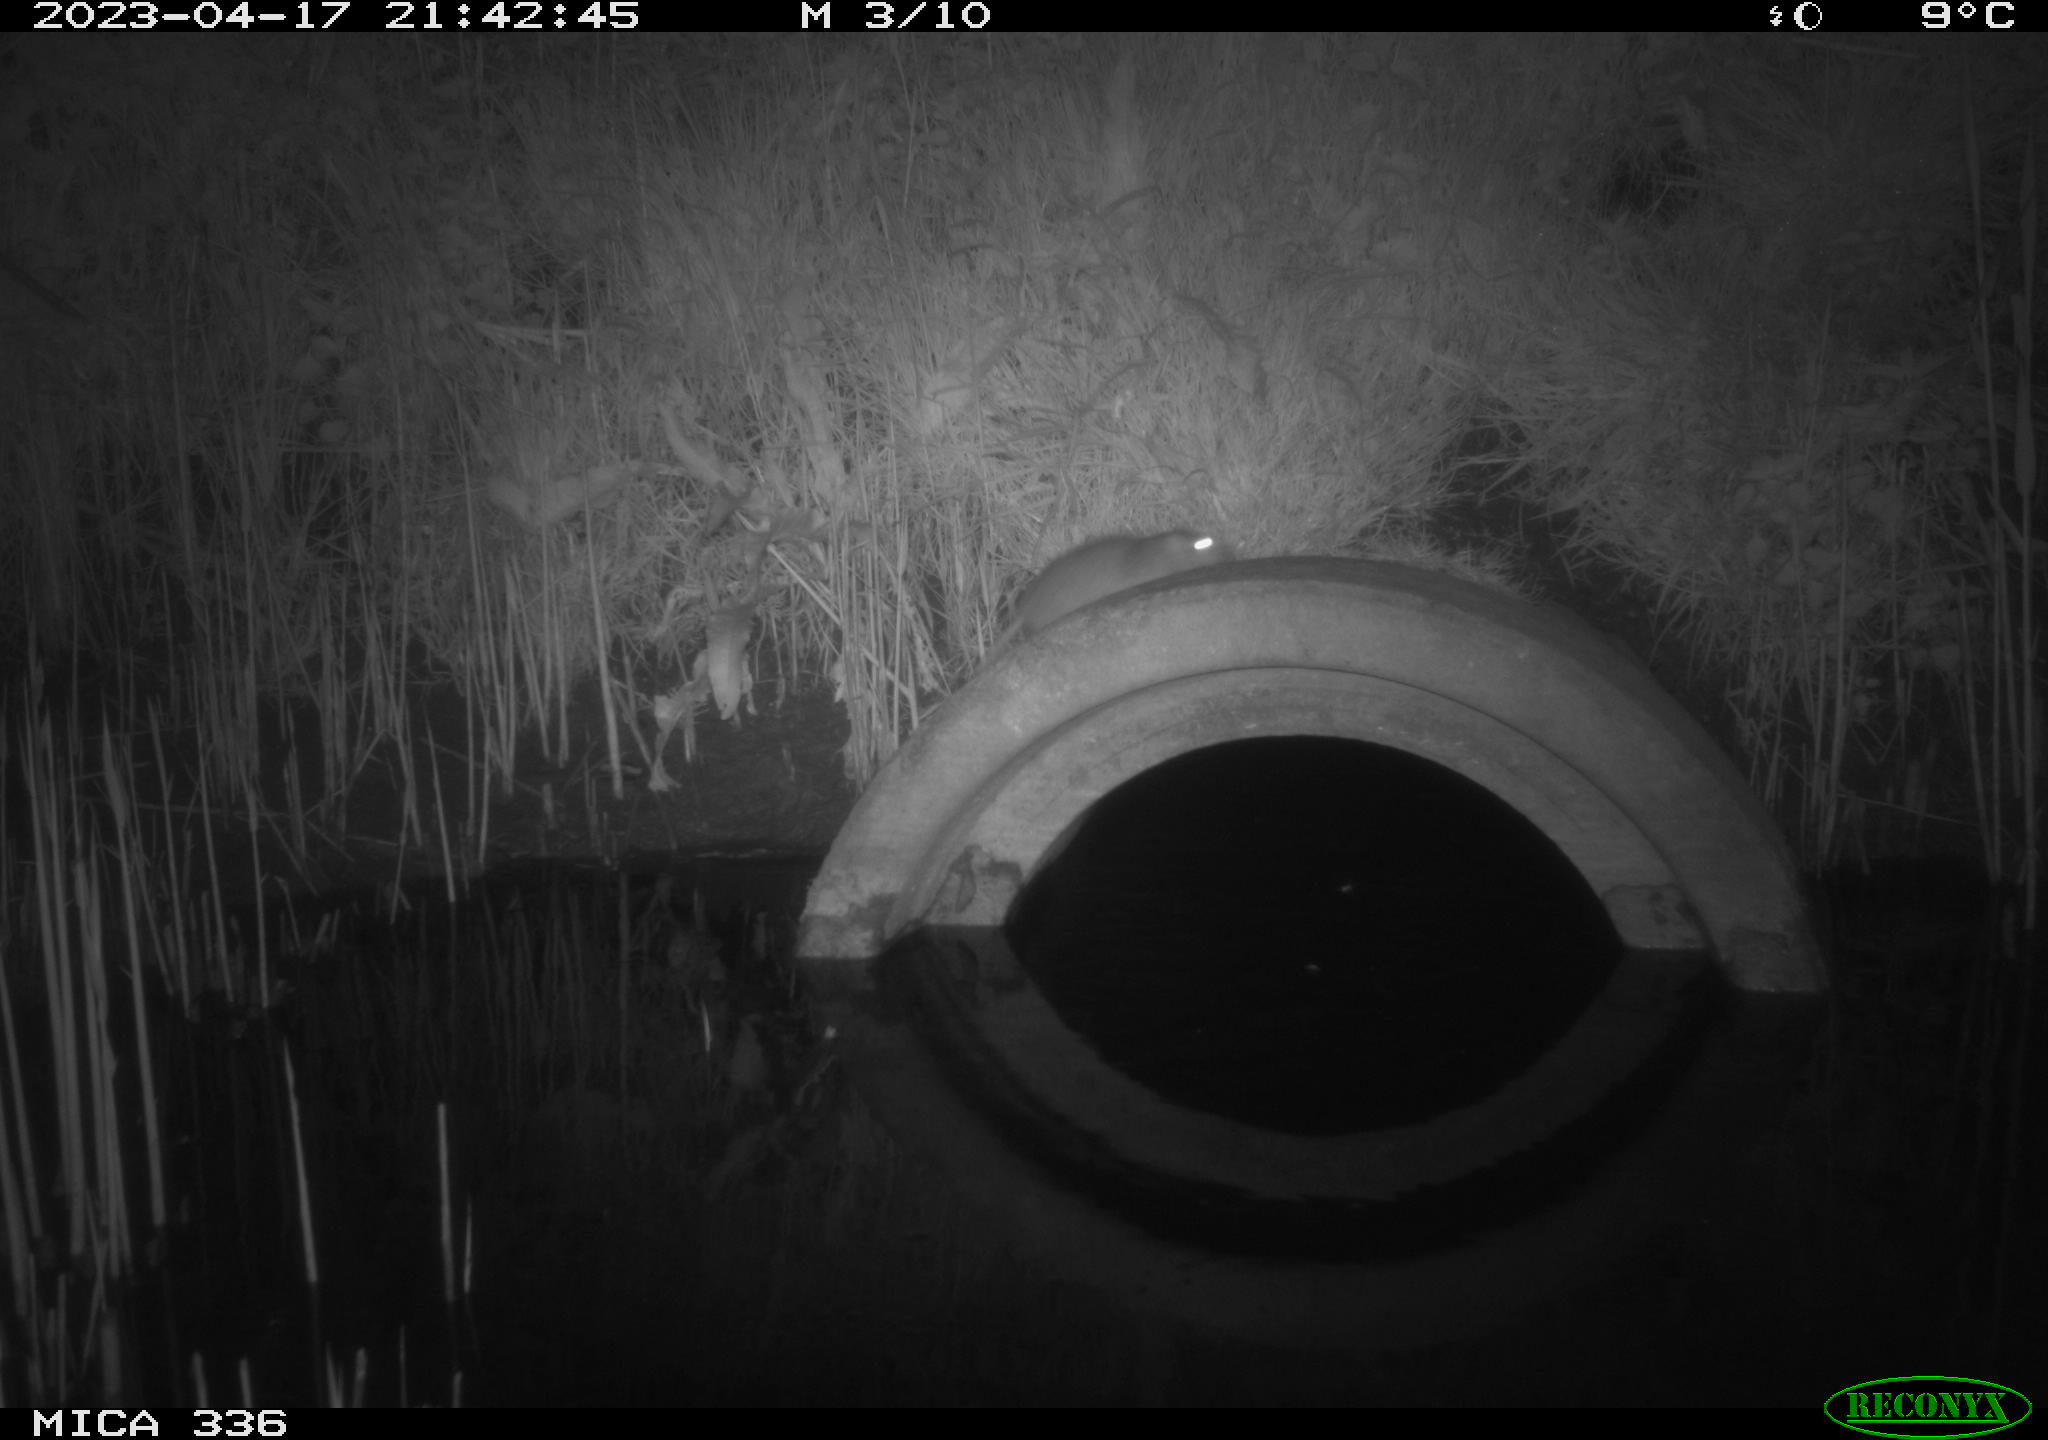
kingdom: Animalia
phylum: Chordata
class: Mammalia
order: Rodentia
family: Muridae
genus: Rattus
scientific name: Rattus norvegicus
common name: Brown rat
